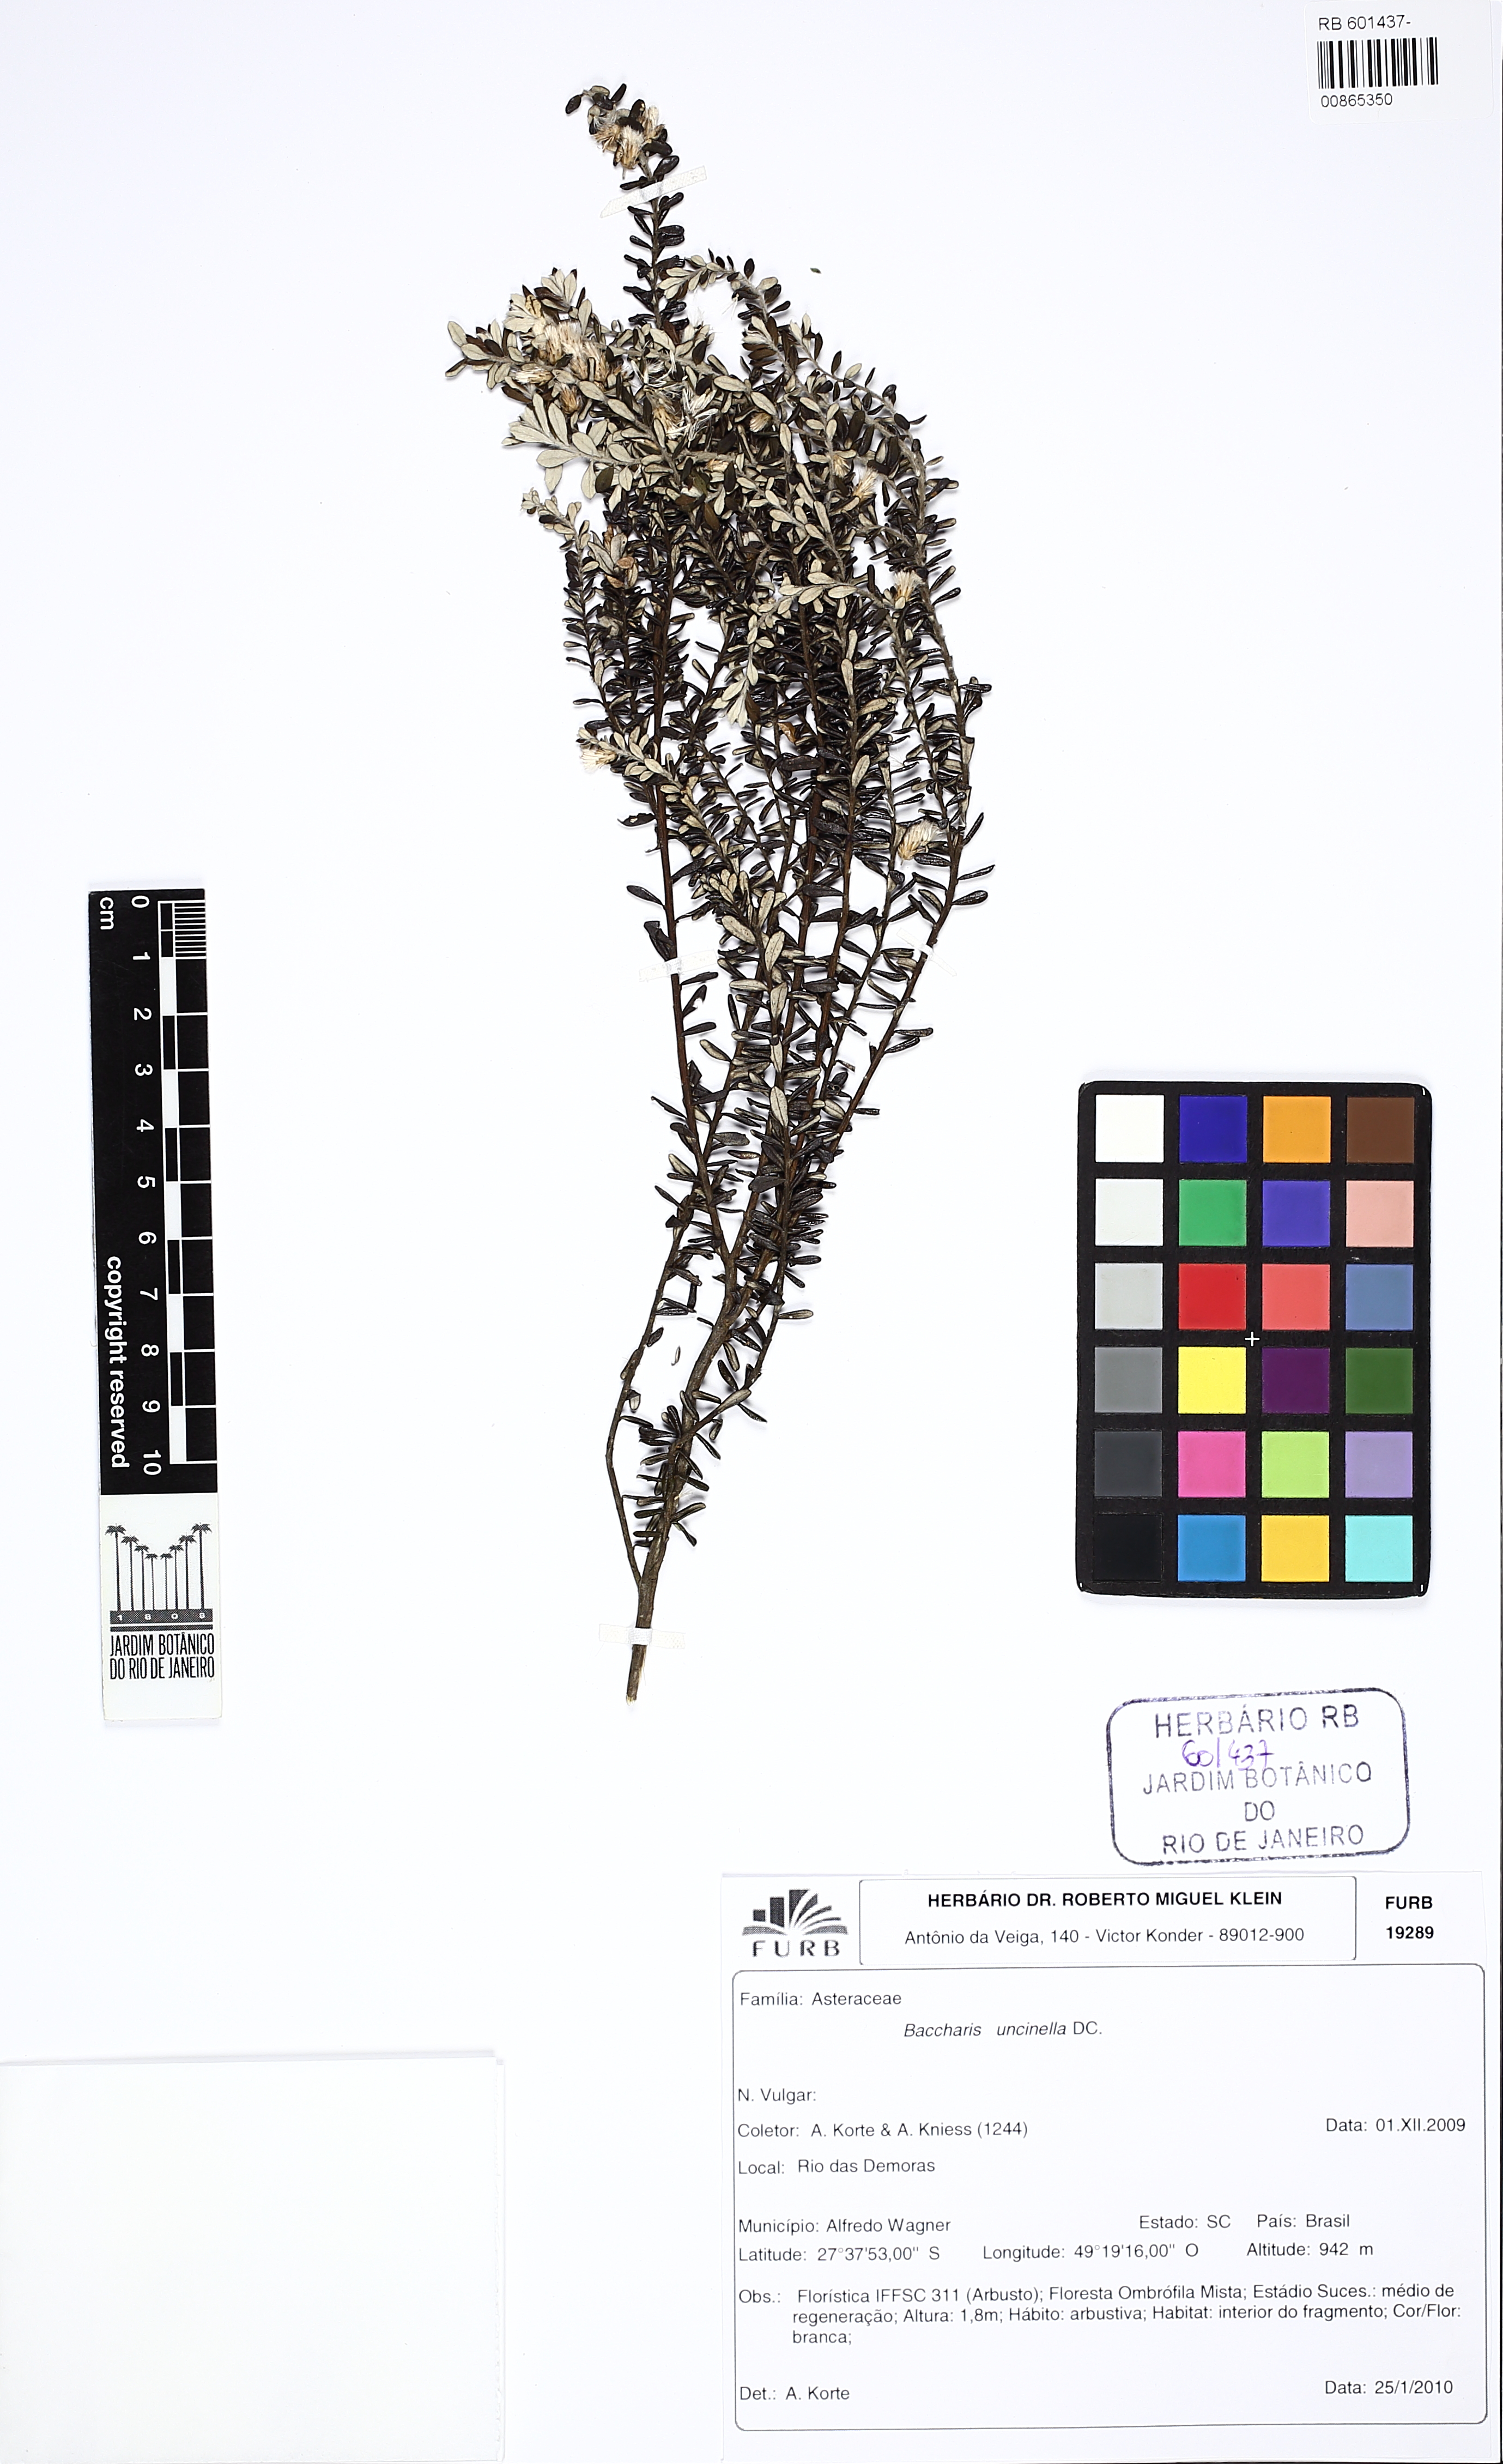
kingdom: Plantae
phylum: Tracheophyta
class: Magnoliopsida
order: Asterales
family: Asteraceae
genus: Baccharis
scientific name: Baccharis uncinella
